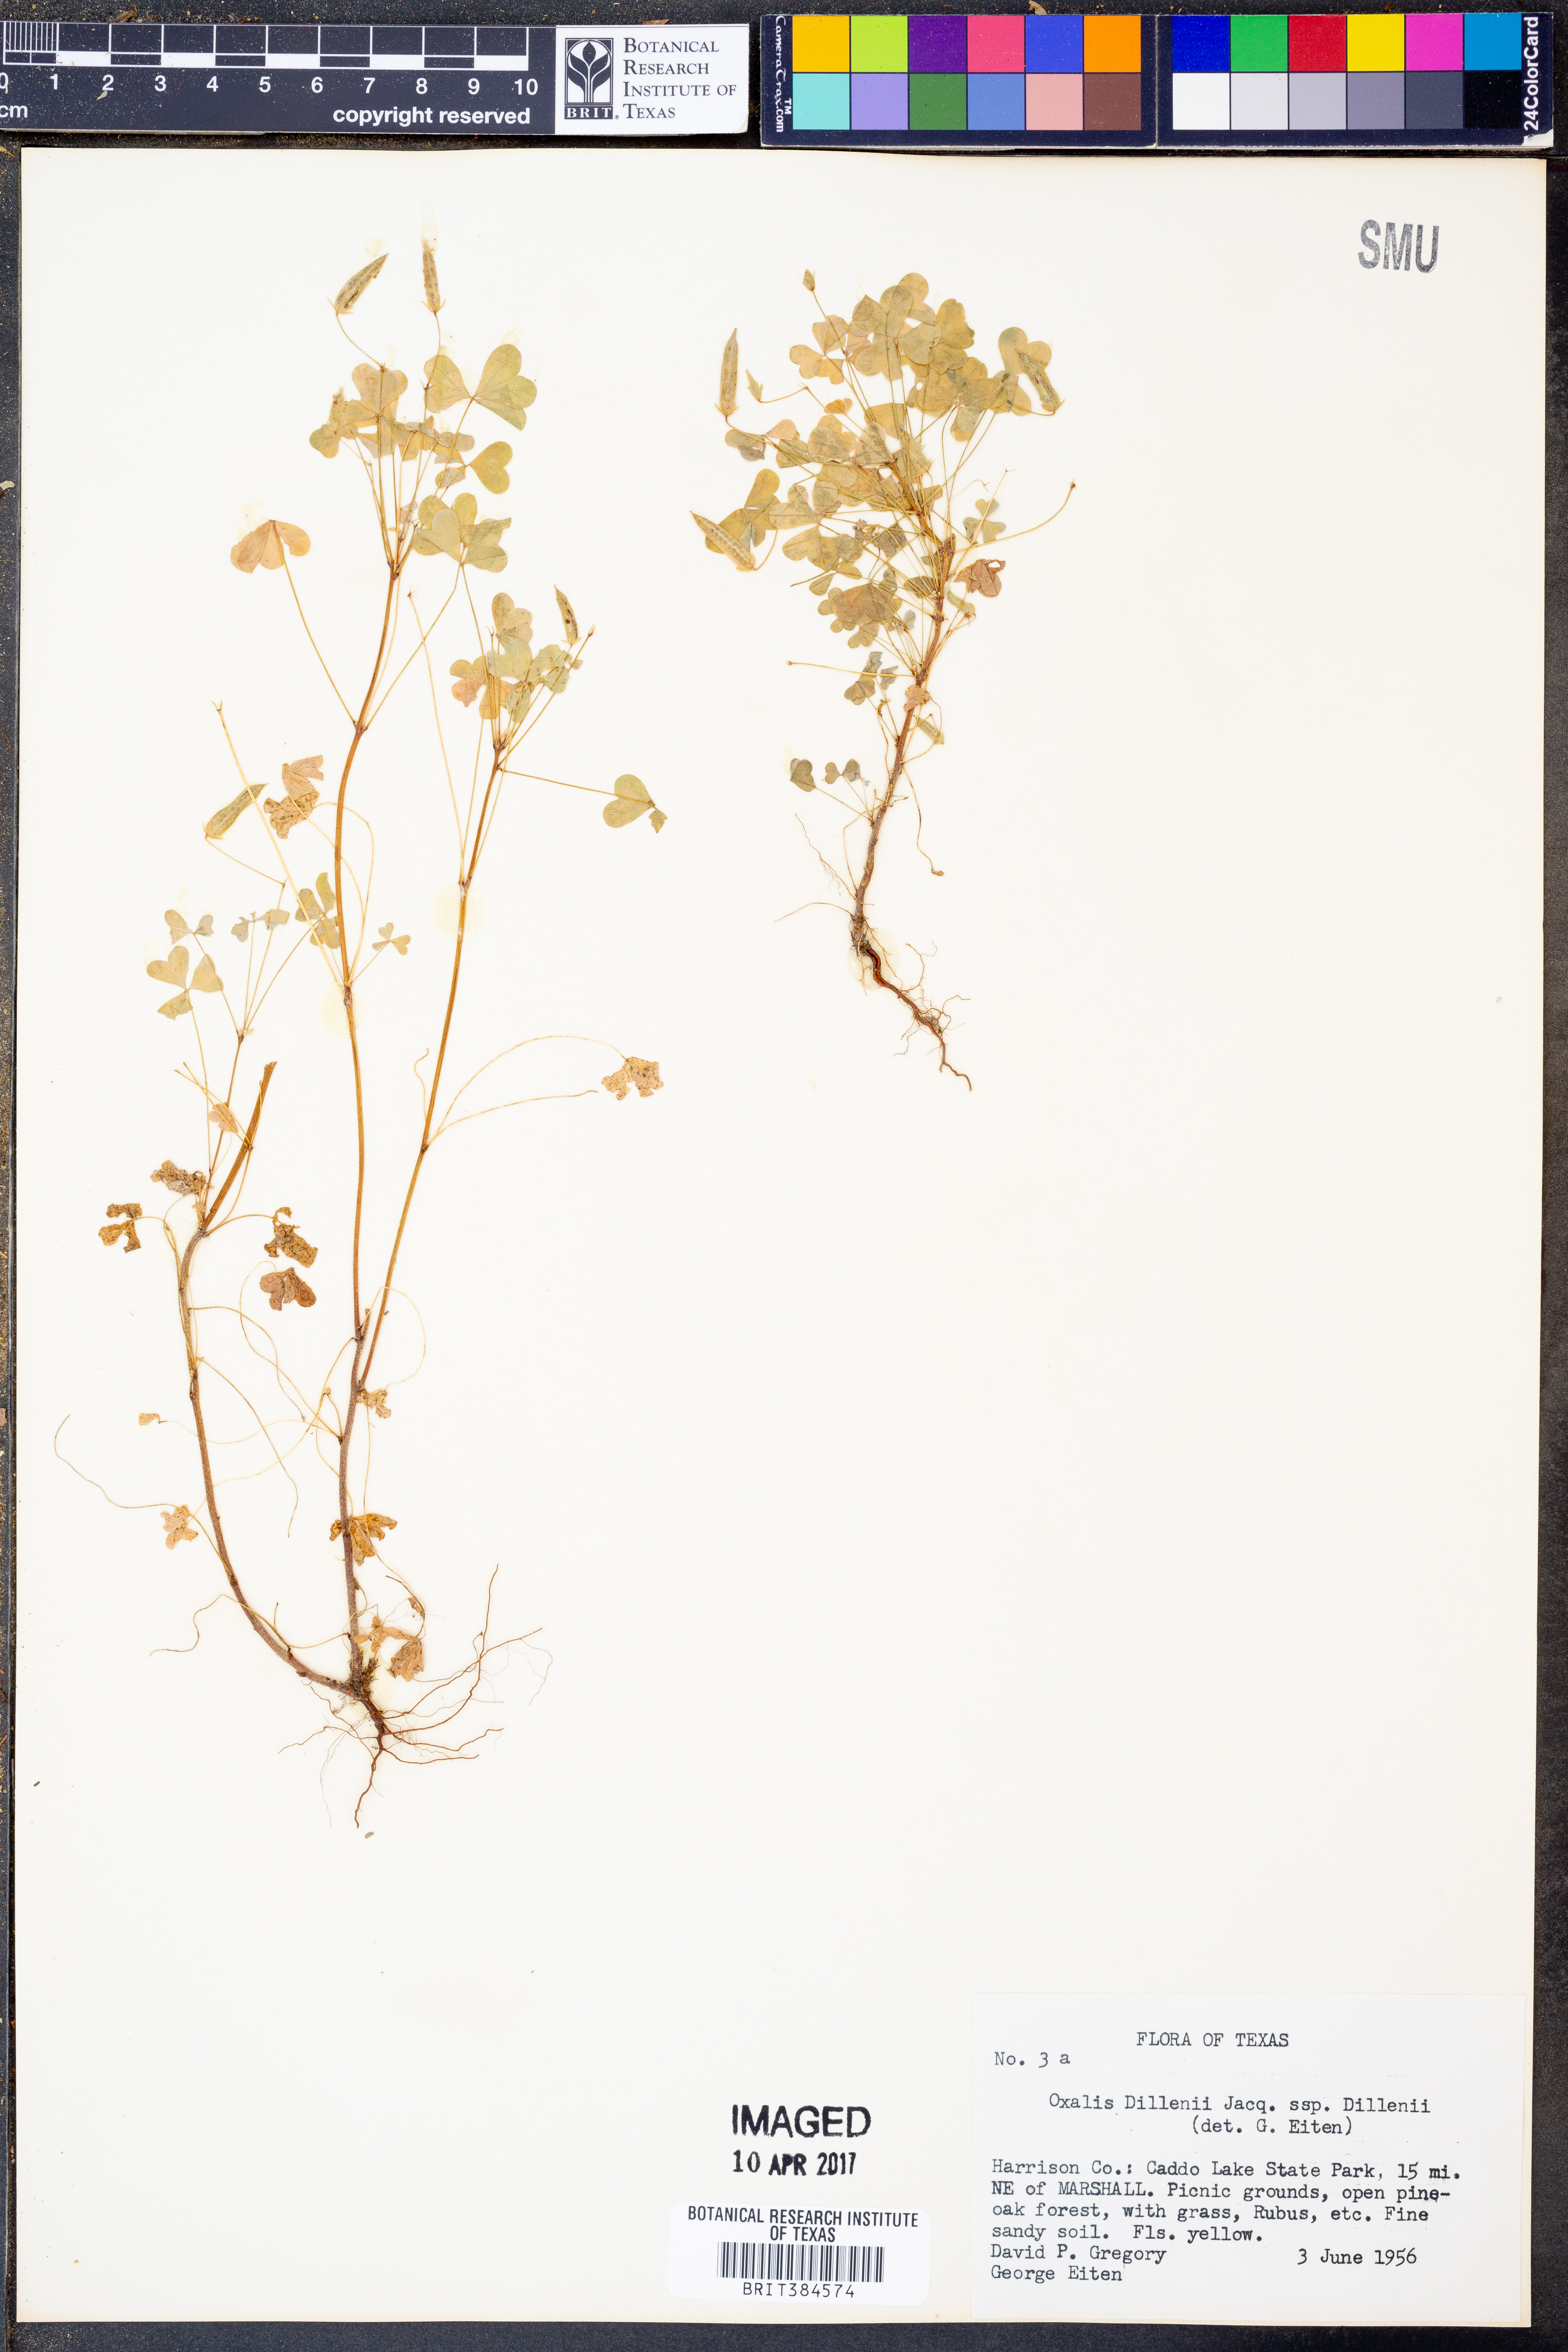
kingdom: Plantae
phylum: Tracheophyta
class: Magnoliopsida
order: Oxalidales
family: Oxalidaceae
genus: Oxalis
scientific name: Oxalis dillenii
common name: Sussex yellow-sorrel
